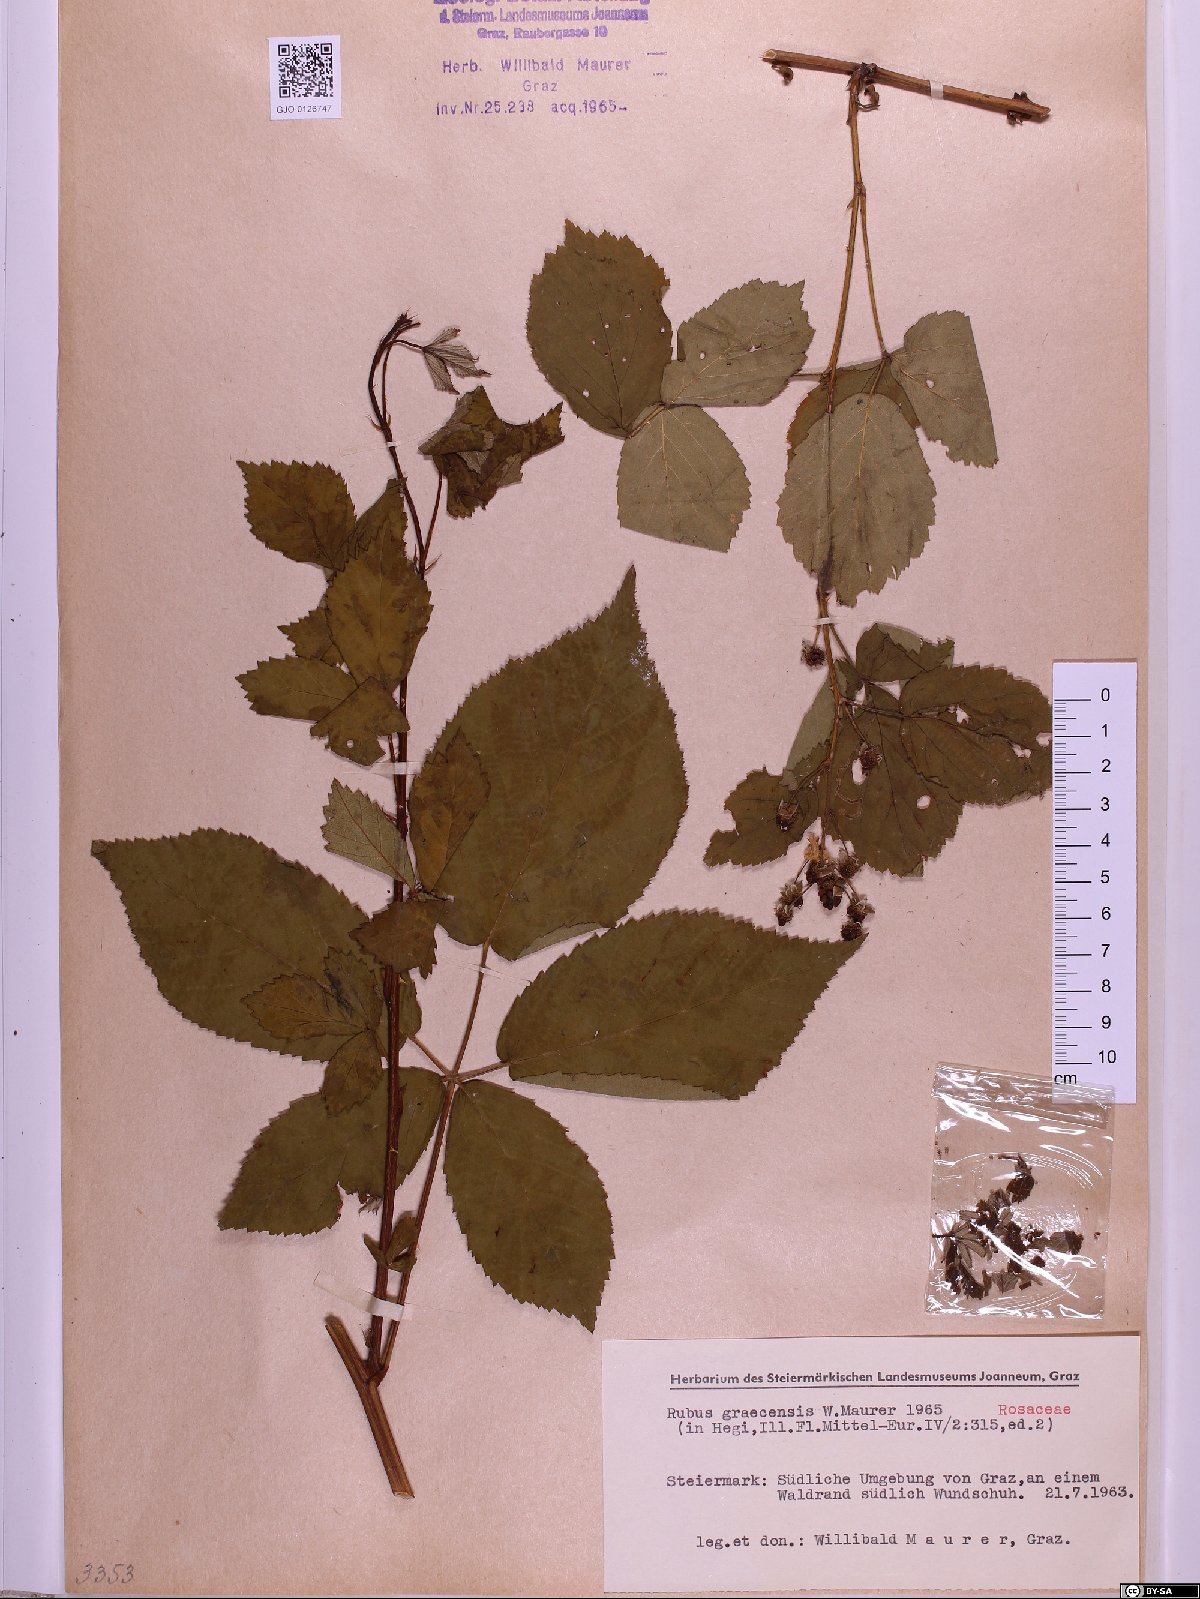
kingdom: Plantae
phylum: Tracheophyta
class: Magnoliopsida
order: Rosales
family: Rosaceae
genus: Rubus
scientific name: Rubus graecensis
